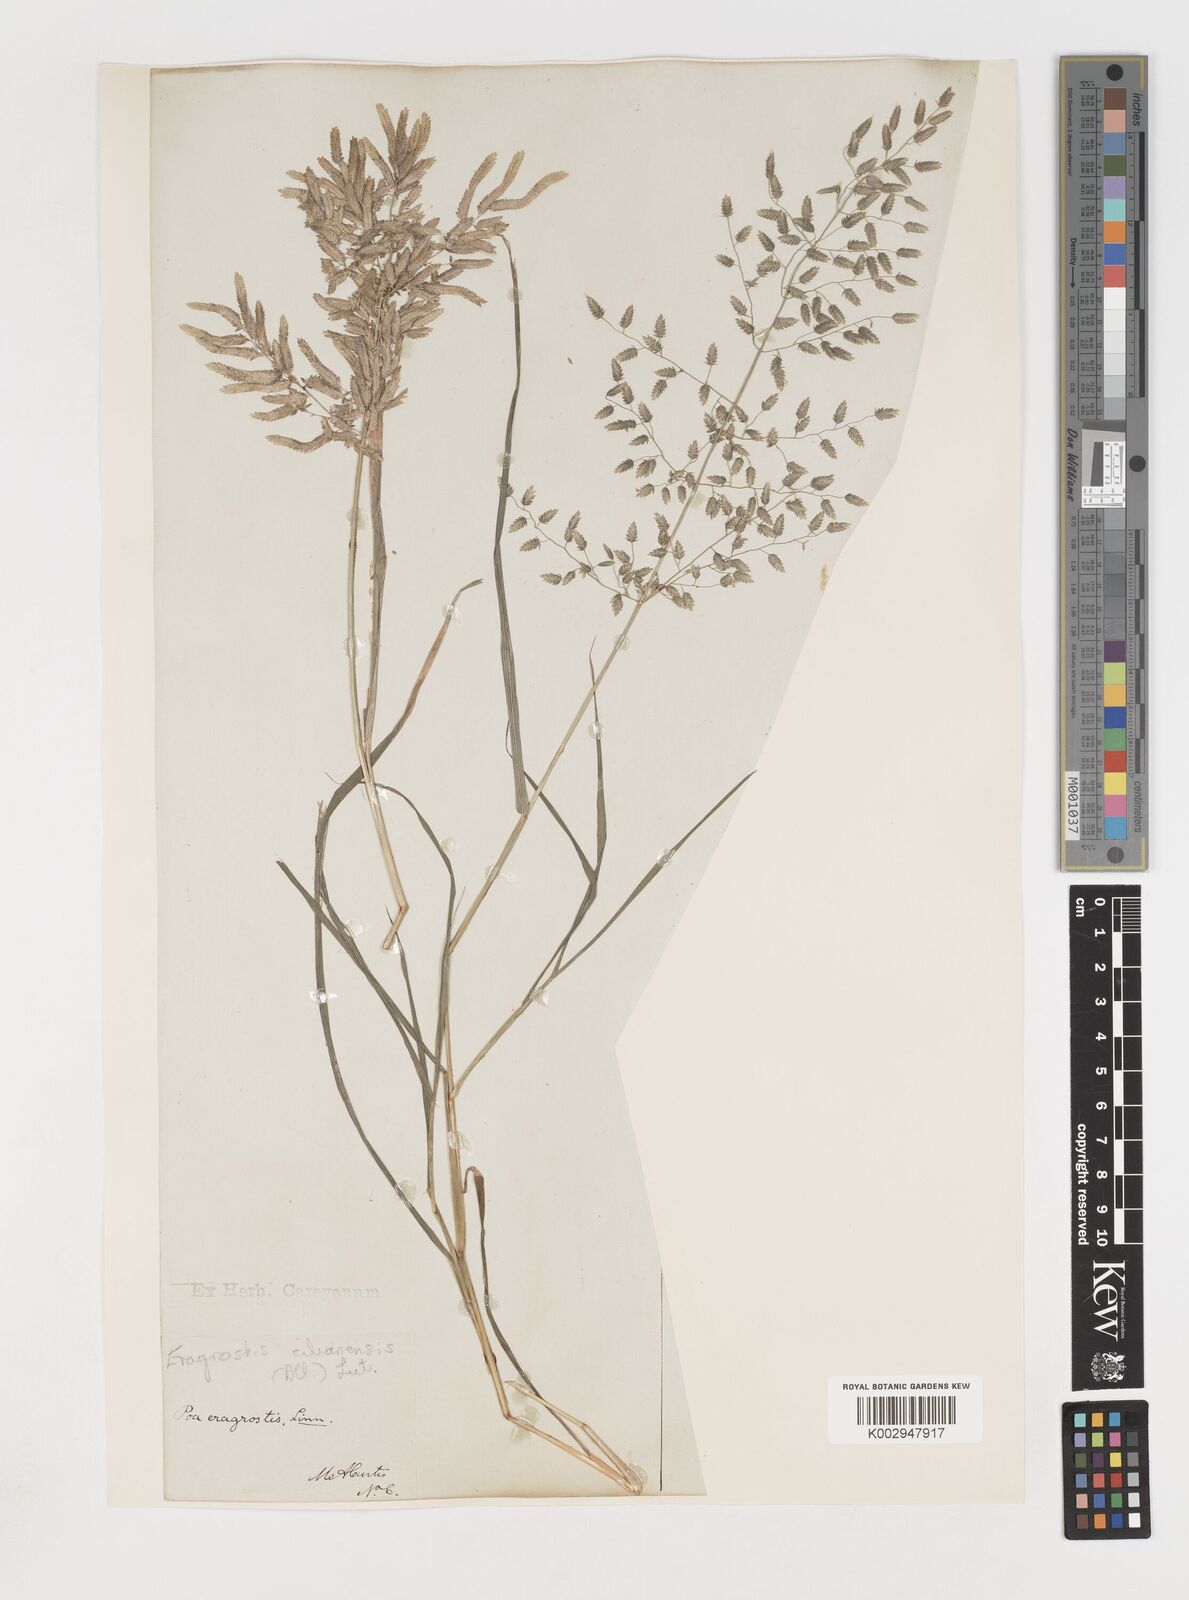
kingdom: Plantae
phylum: Tracheophyta
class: Liliopsida
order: Poales
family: Poaceae
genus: Eragrostis
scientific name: Eragrostis
